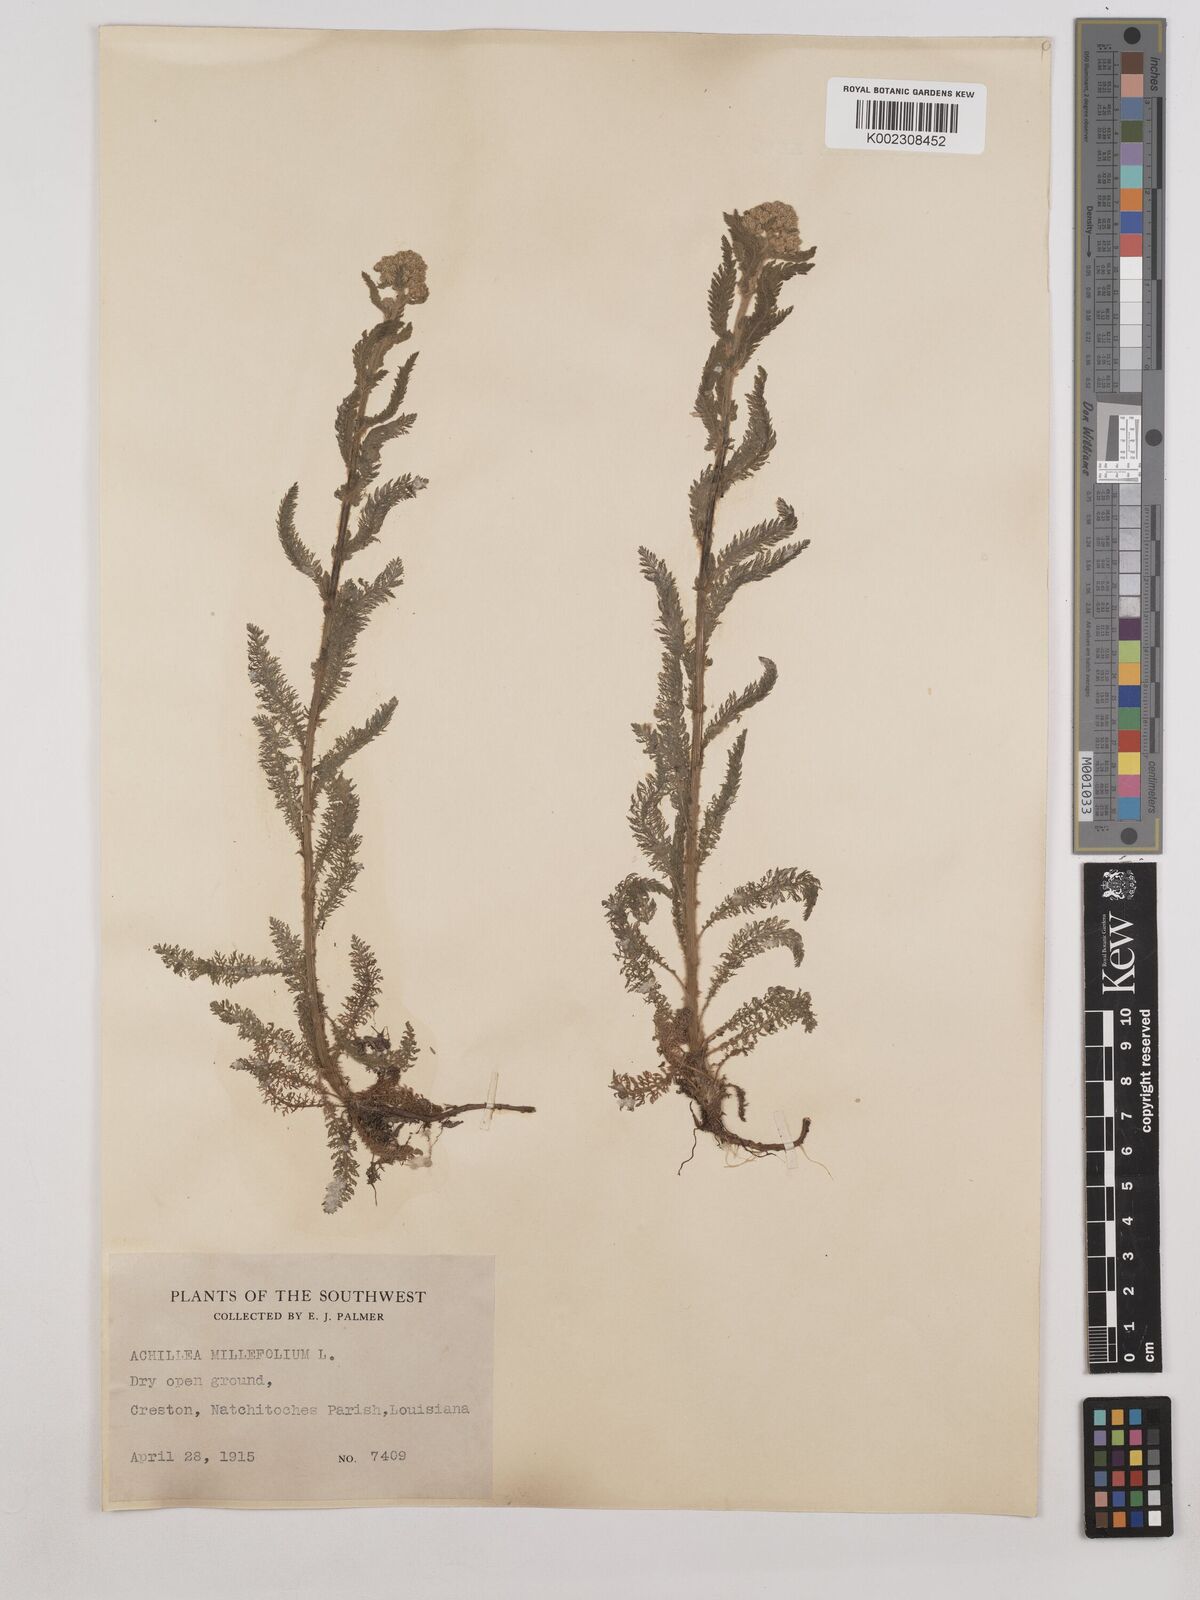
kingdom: Plantae
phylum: Tracheophyta
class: Magnoliopsida
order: Asterales
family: Asteraceae
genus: Achillea
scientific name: Achillea millefolium
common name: Yarrow
